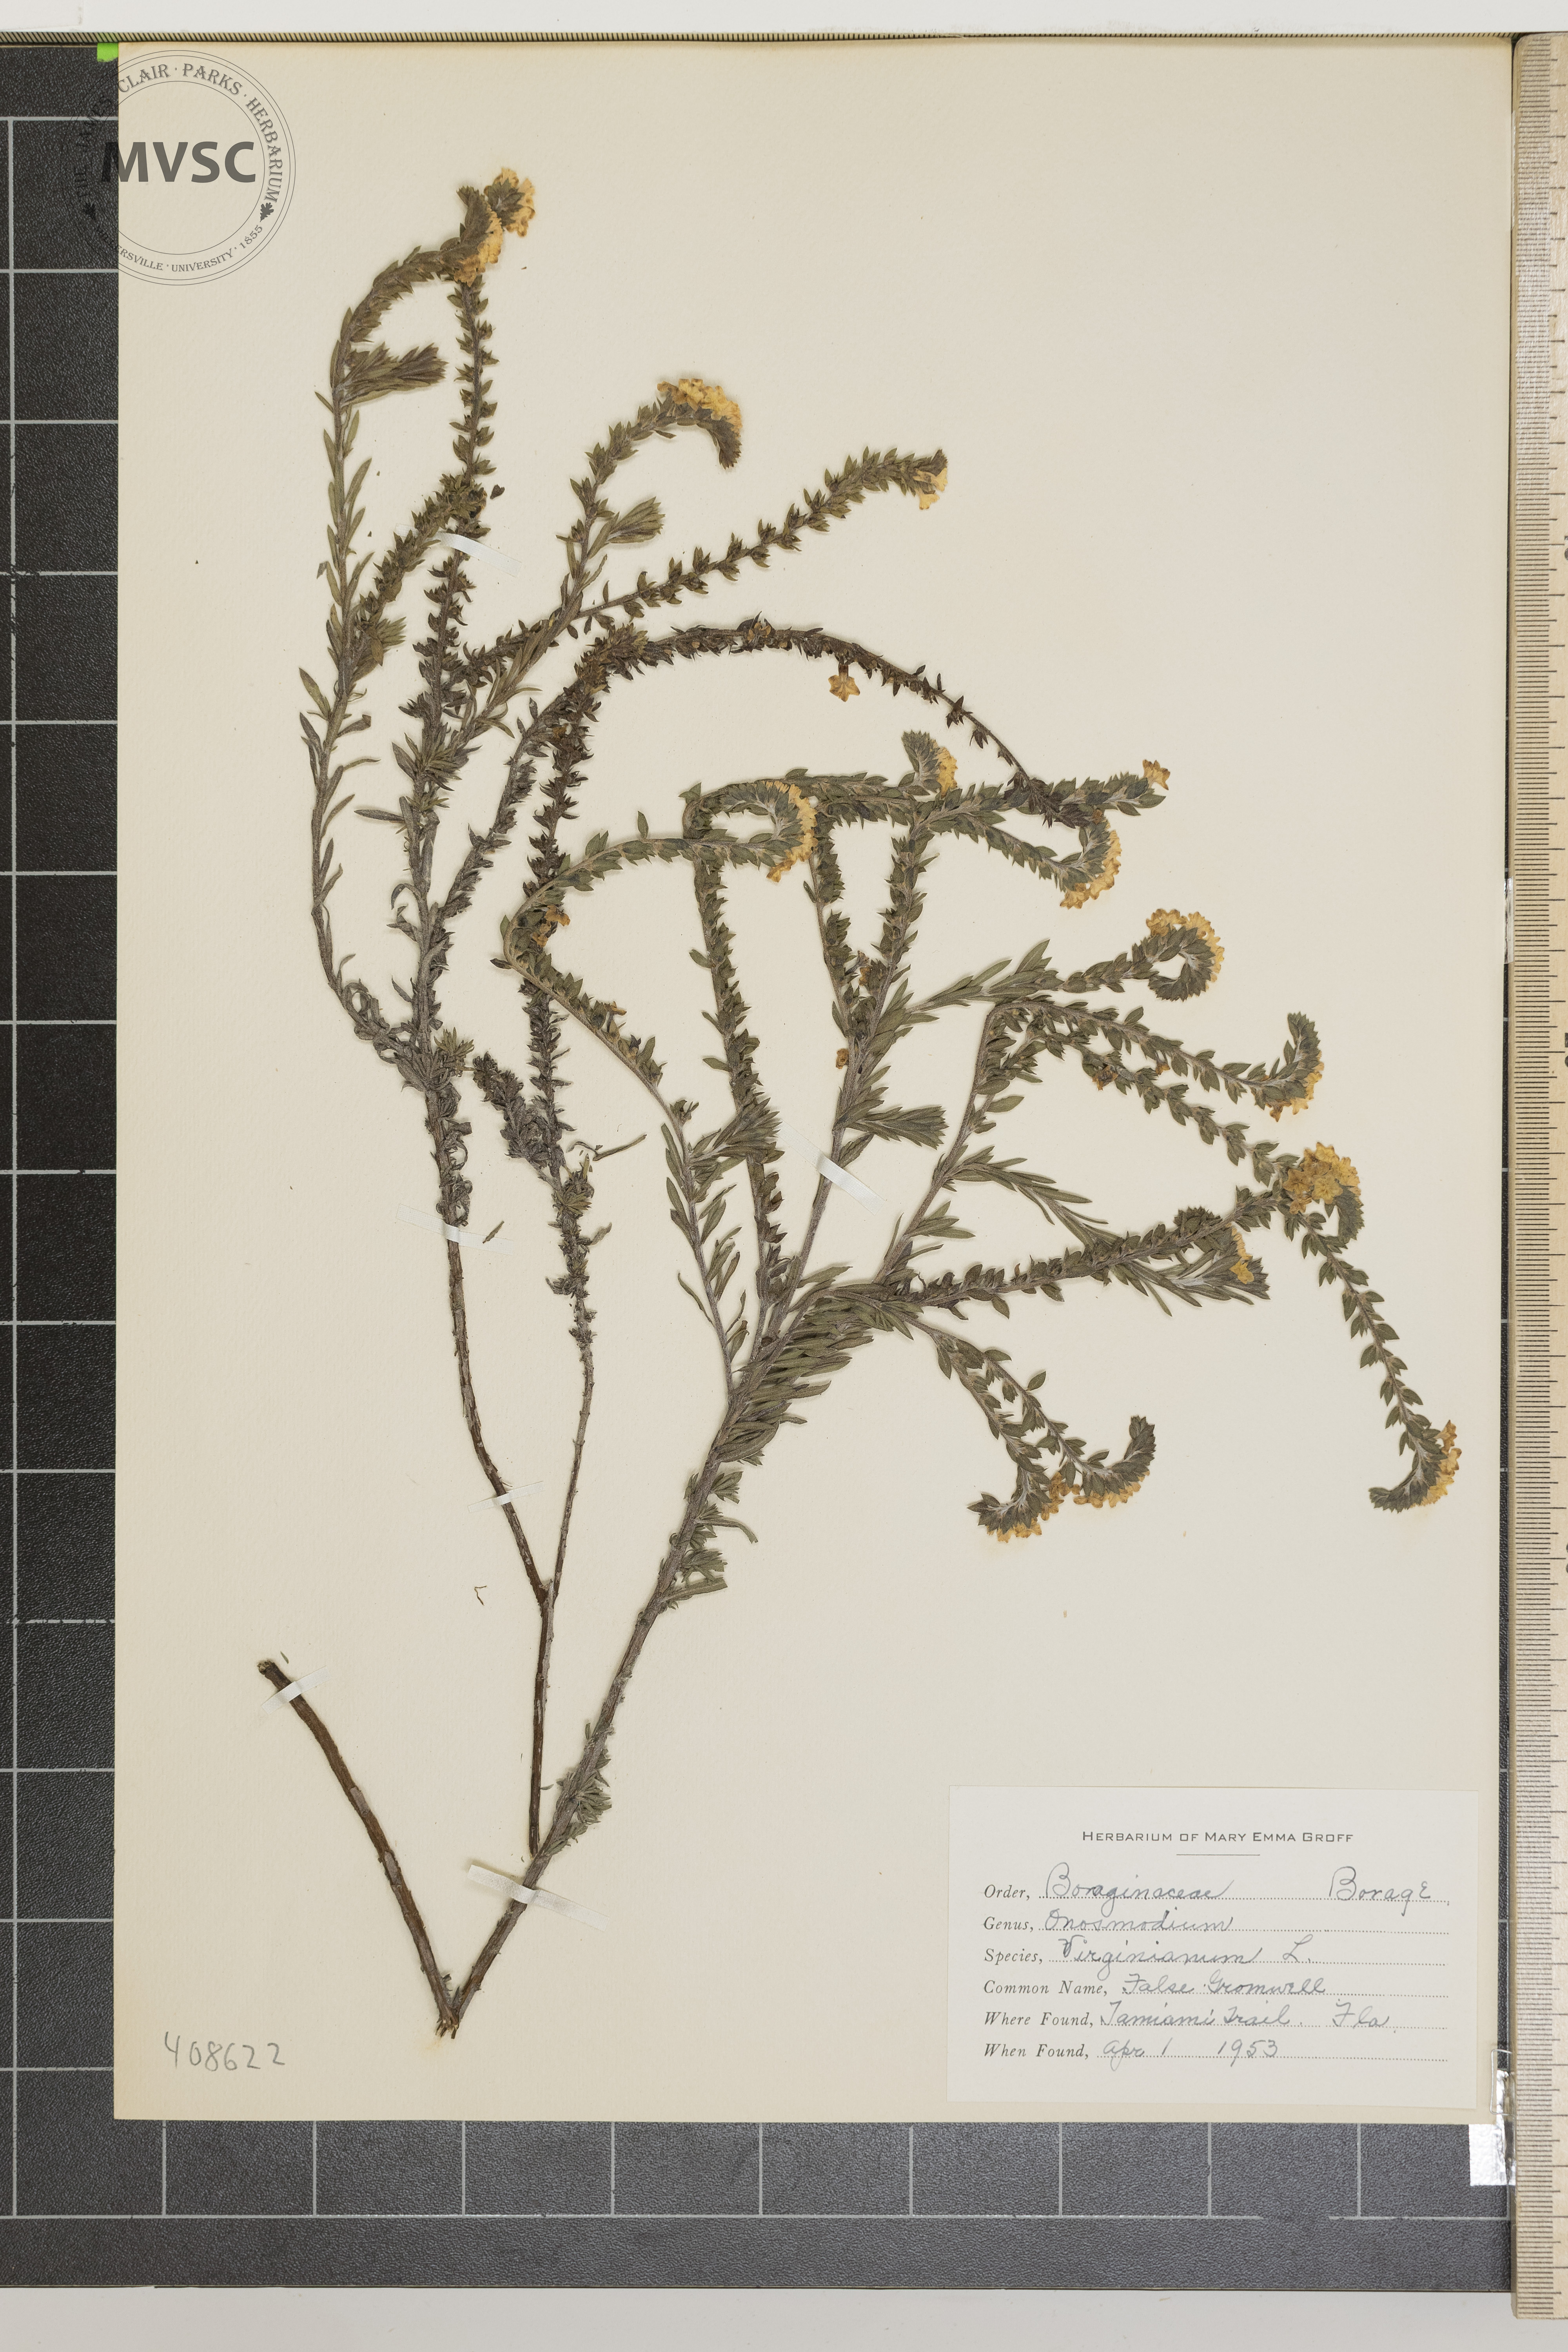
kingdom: Plantae
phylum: Tracheophyta
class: Magnoliopsida
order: Boraginales
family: Boraginaceae
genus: Lithospermum
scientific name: Lithospermum virginianum
